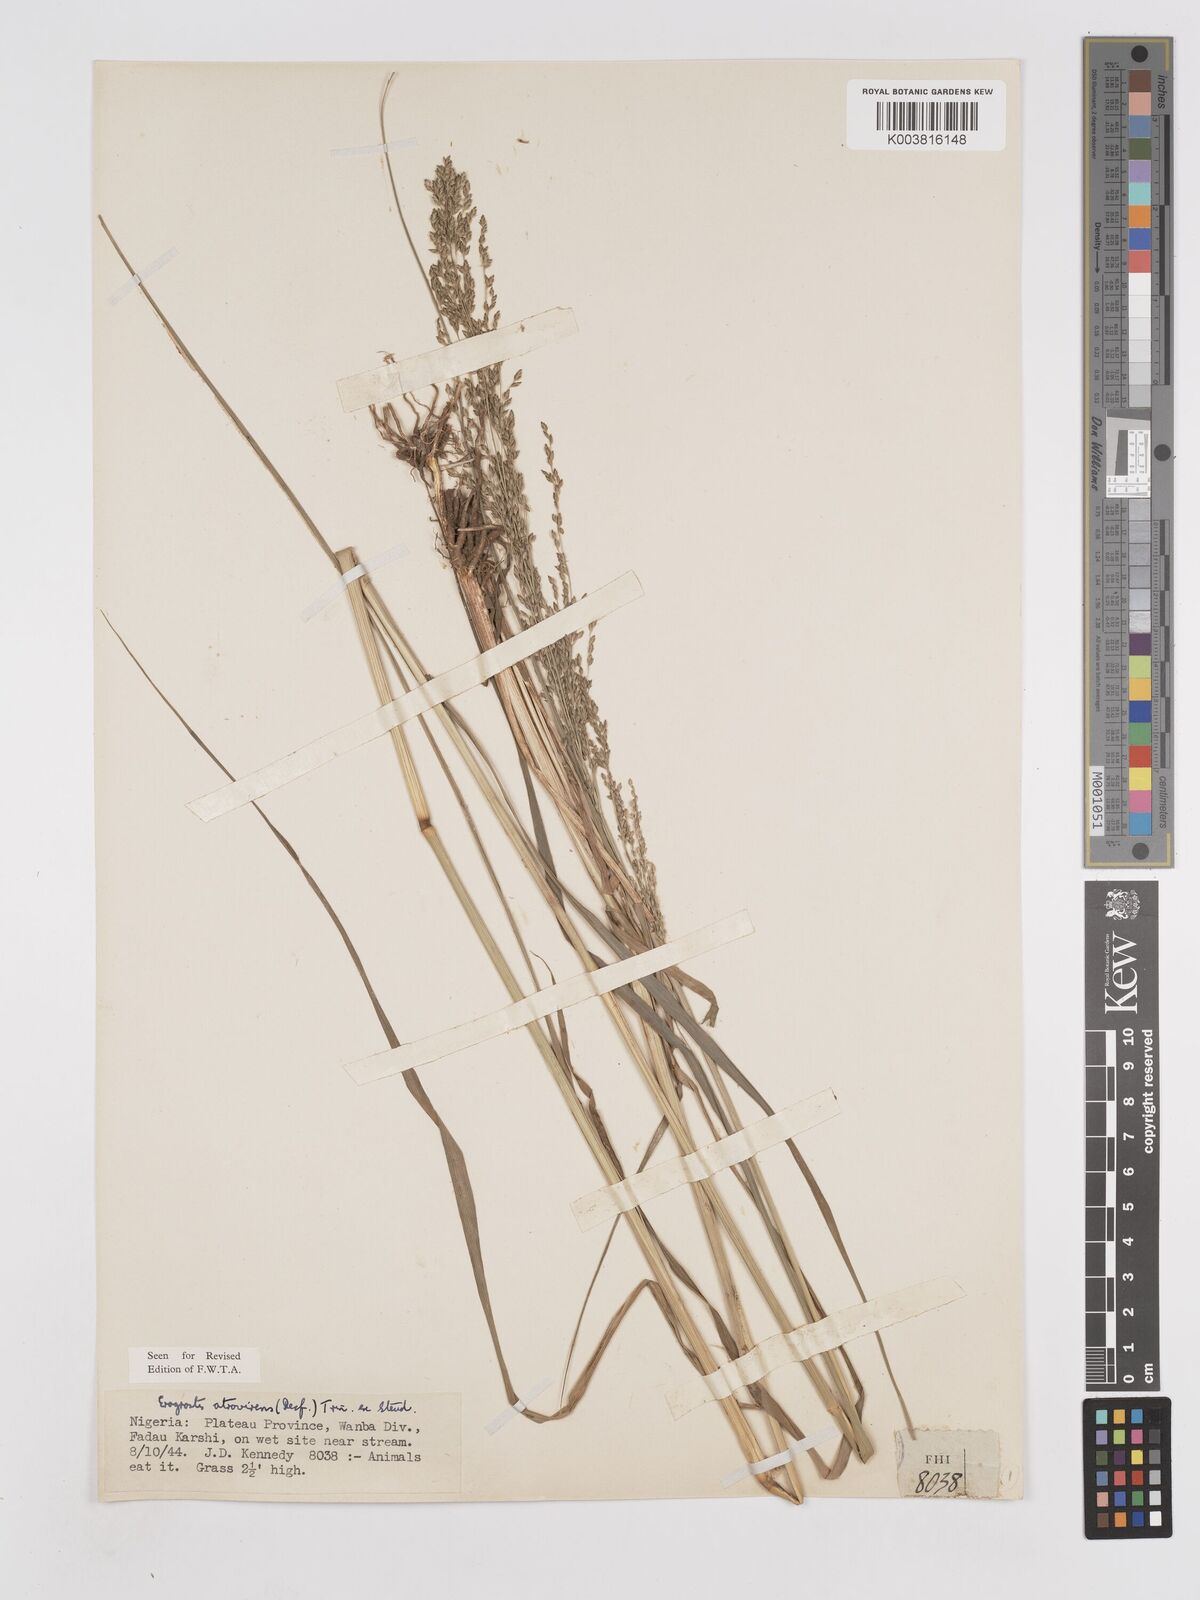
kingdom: Plantae
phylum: Tracheophyta
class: Liliopsida
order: Poales
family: Poaceae
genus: Eragrostis
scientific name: Eragrostis atrovirens
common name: Thalia lovegrass
